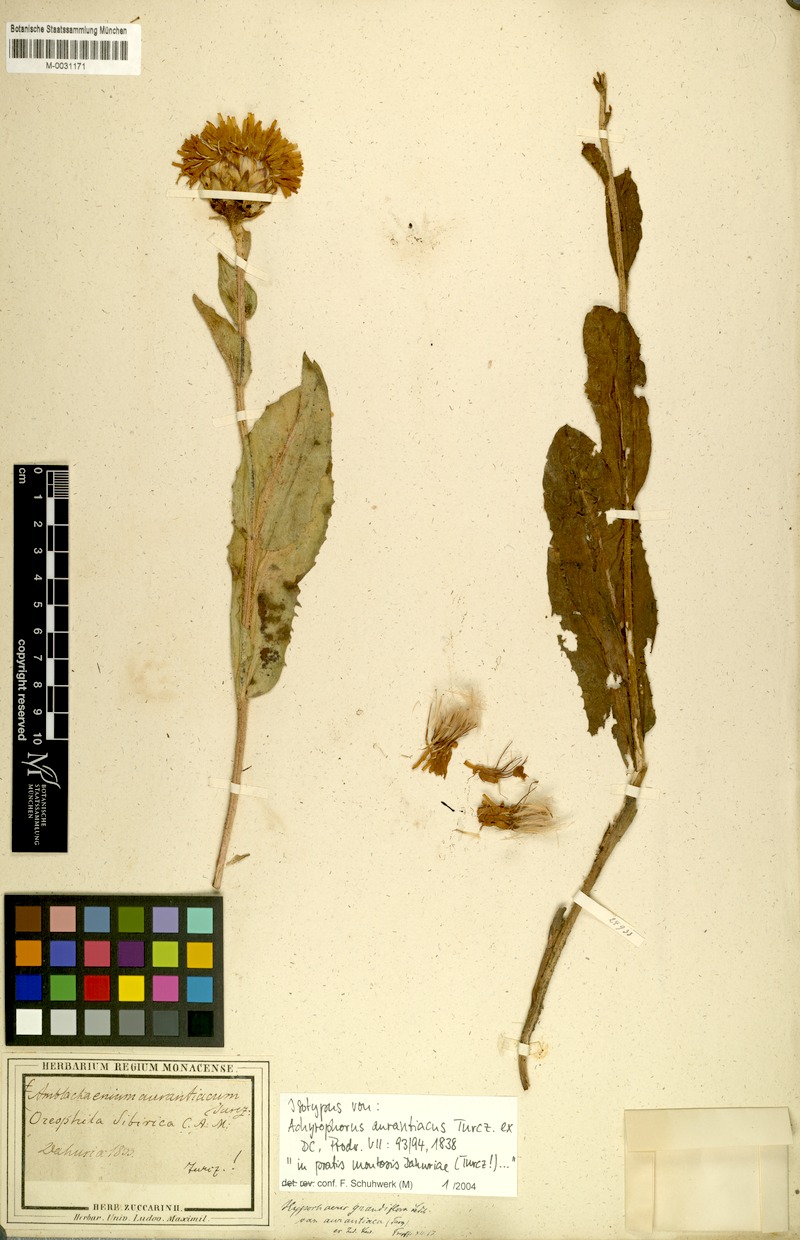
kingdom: Plantae
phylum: Tracheophyta
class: Magnoliopsida
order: Asterales
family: Asteraceae
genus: Trommsdorffia
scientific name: Trommsdorffia ciliata
